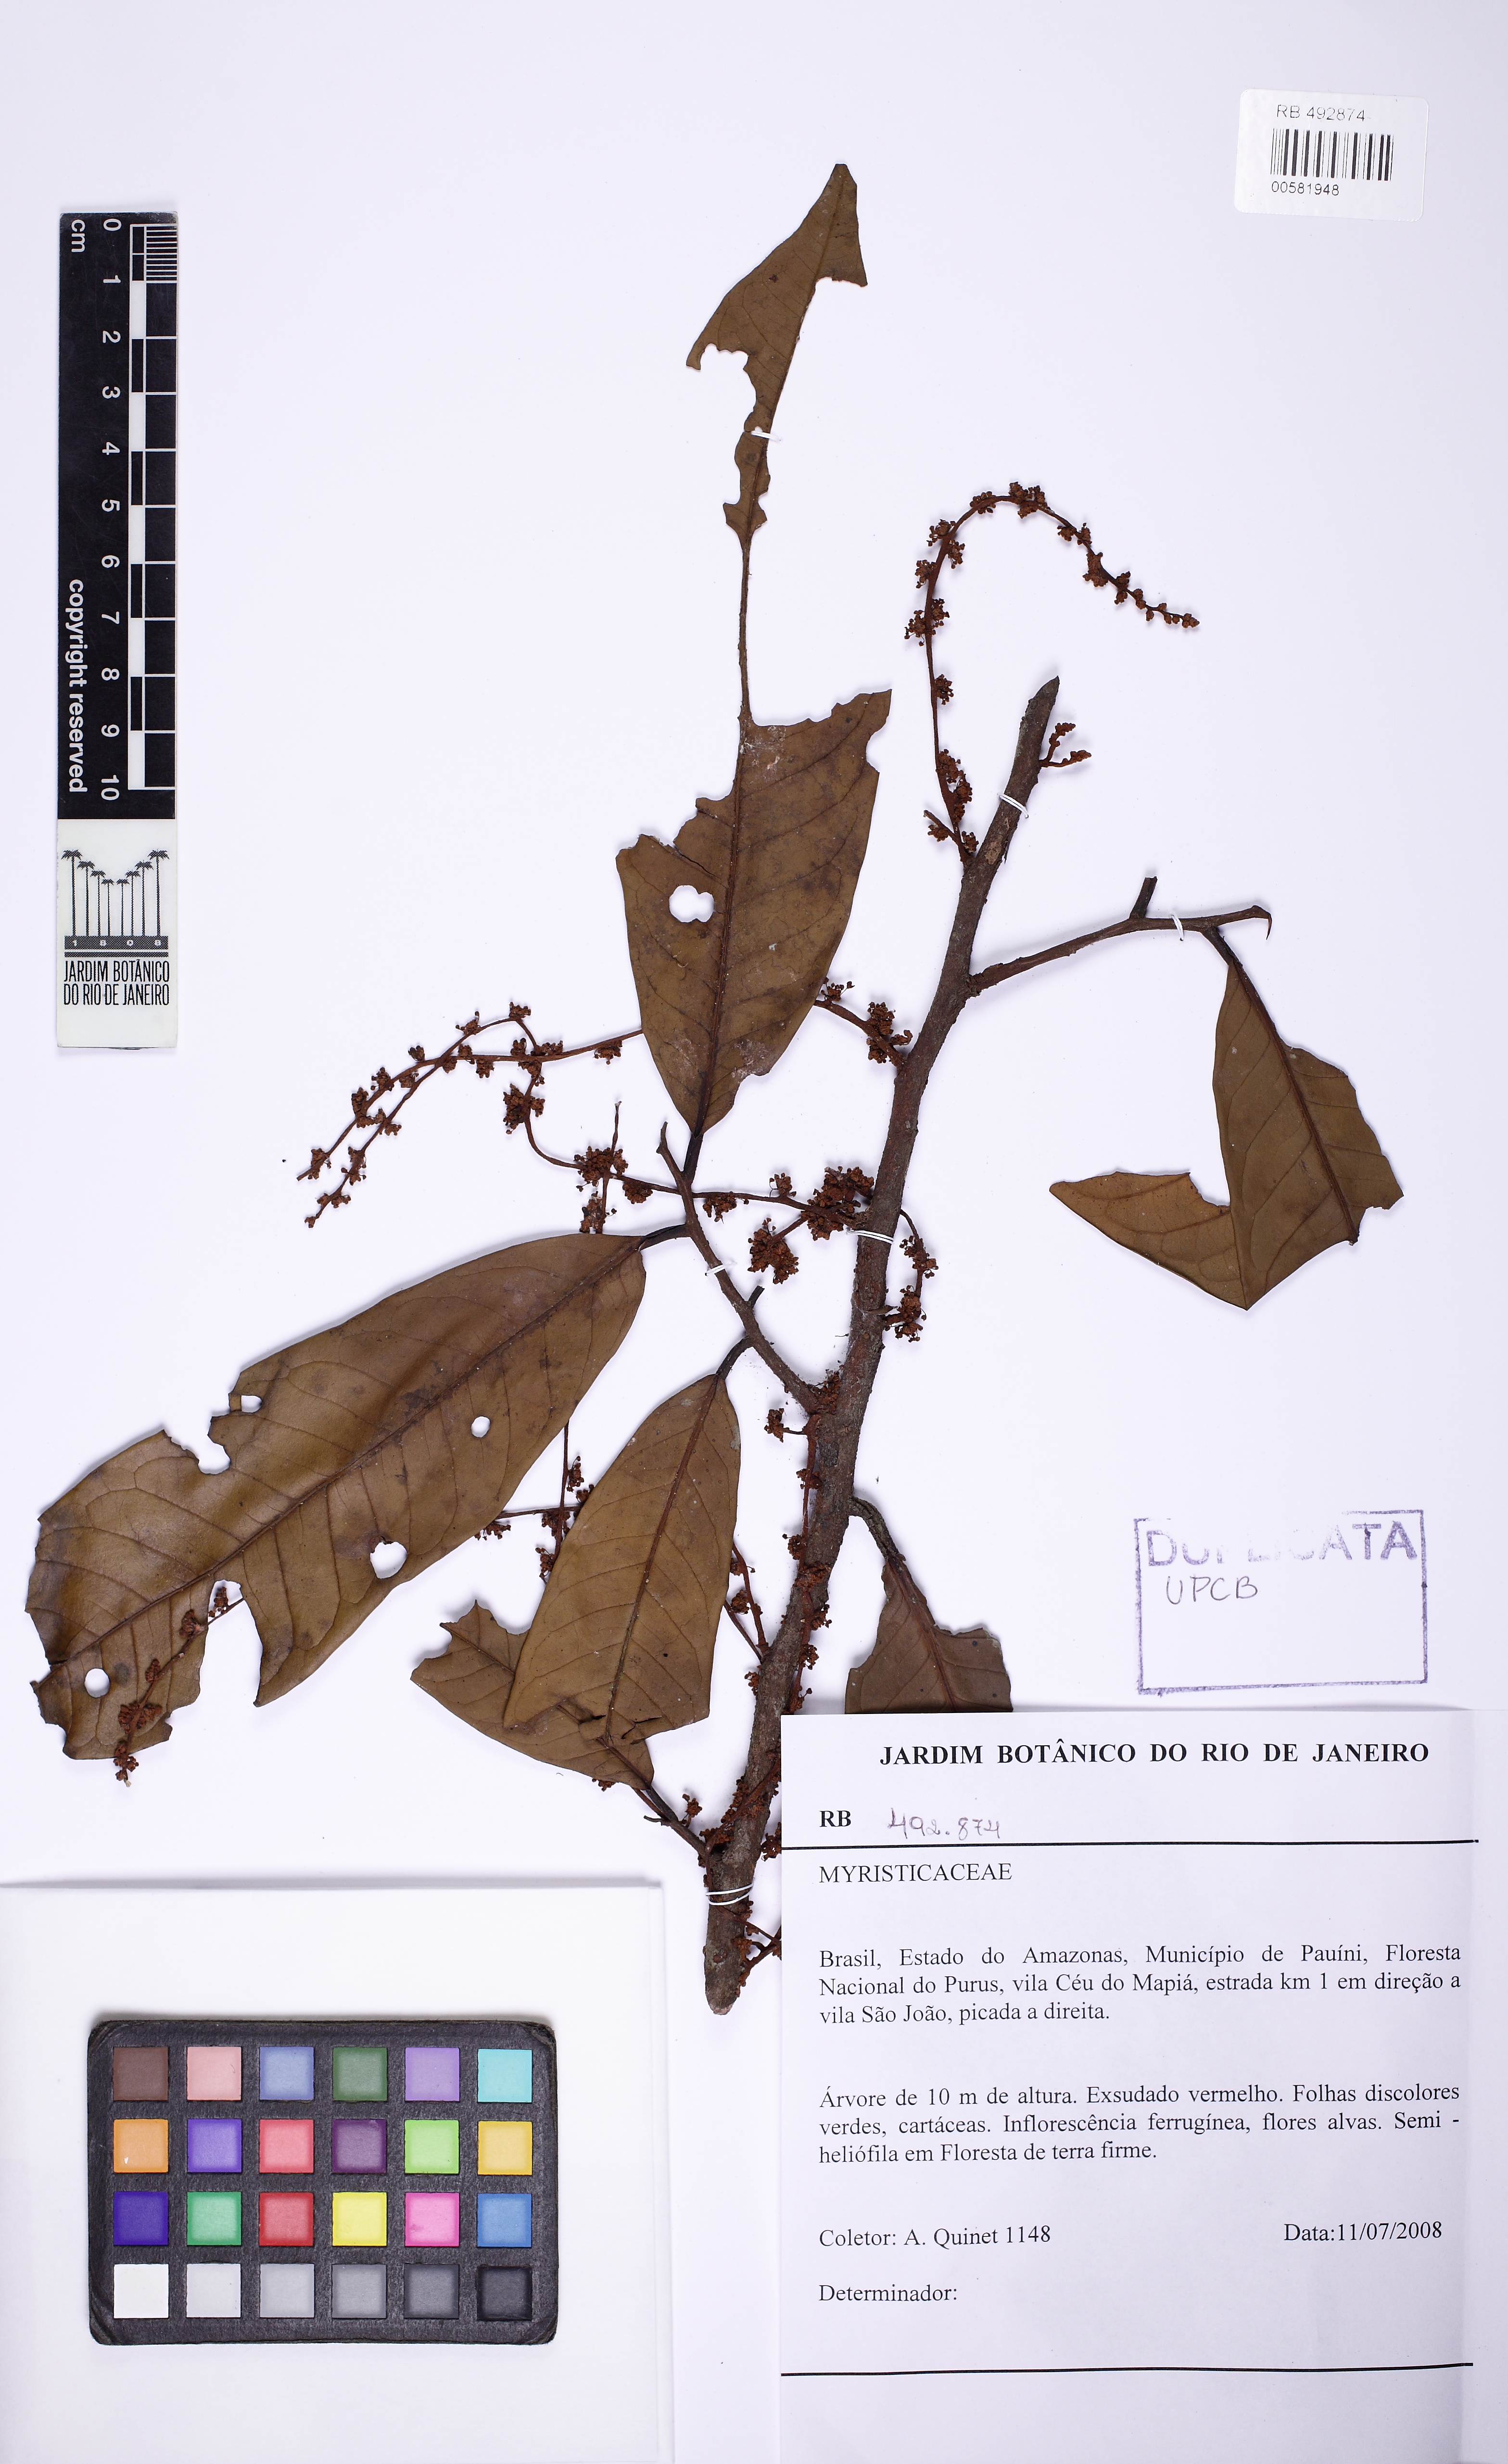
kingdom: Plantae
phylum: Tracheophyta
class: Magnoliopsida
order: Magnoliales
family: Myristicaceae
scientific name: Myristicaceae
